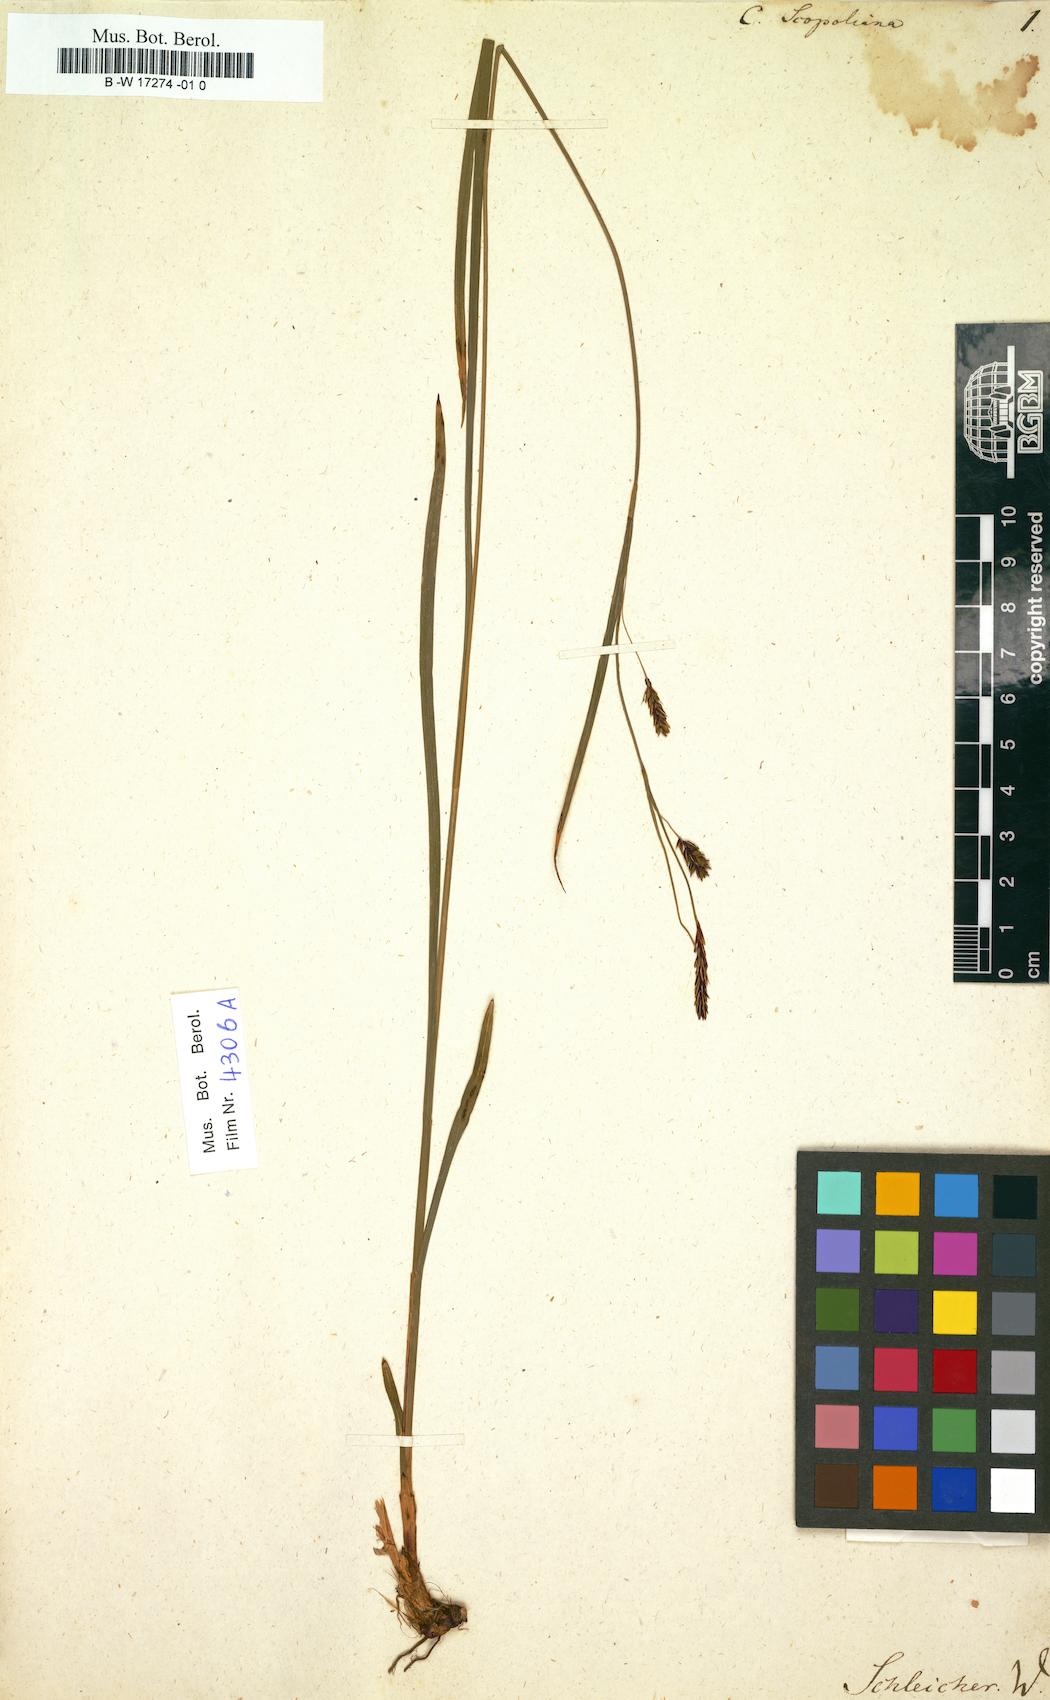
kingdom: Plantae
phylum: Tracheophyta
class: Liliopsida
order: Poales
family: Cyperaceae
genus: Carex
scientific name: Carex ferruginea
